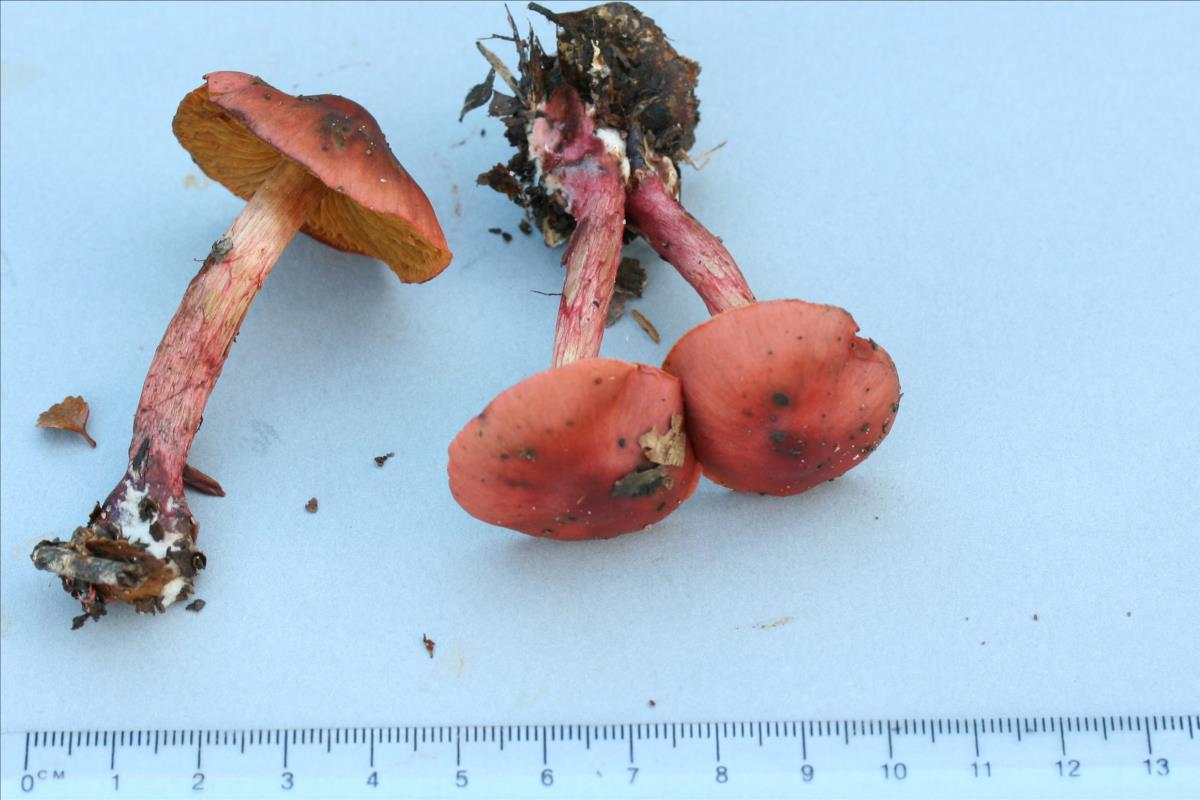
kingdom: Fungi
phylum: Basidiomycota
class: Agaricomycetes
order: Agaricales
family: Cortinariaceae
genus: Cortinarius
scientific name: Cortinarius cardinalis
